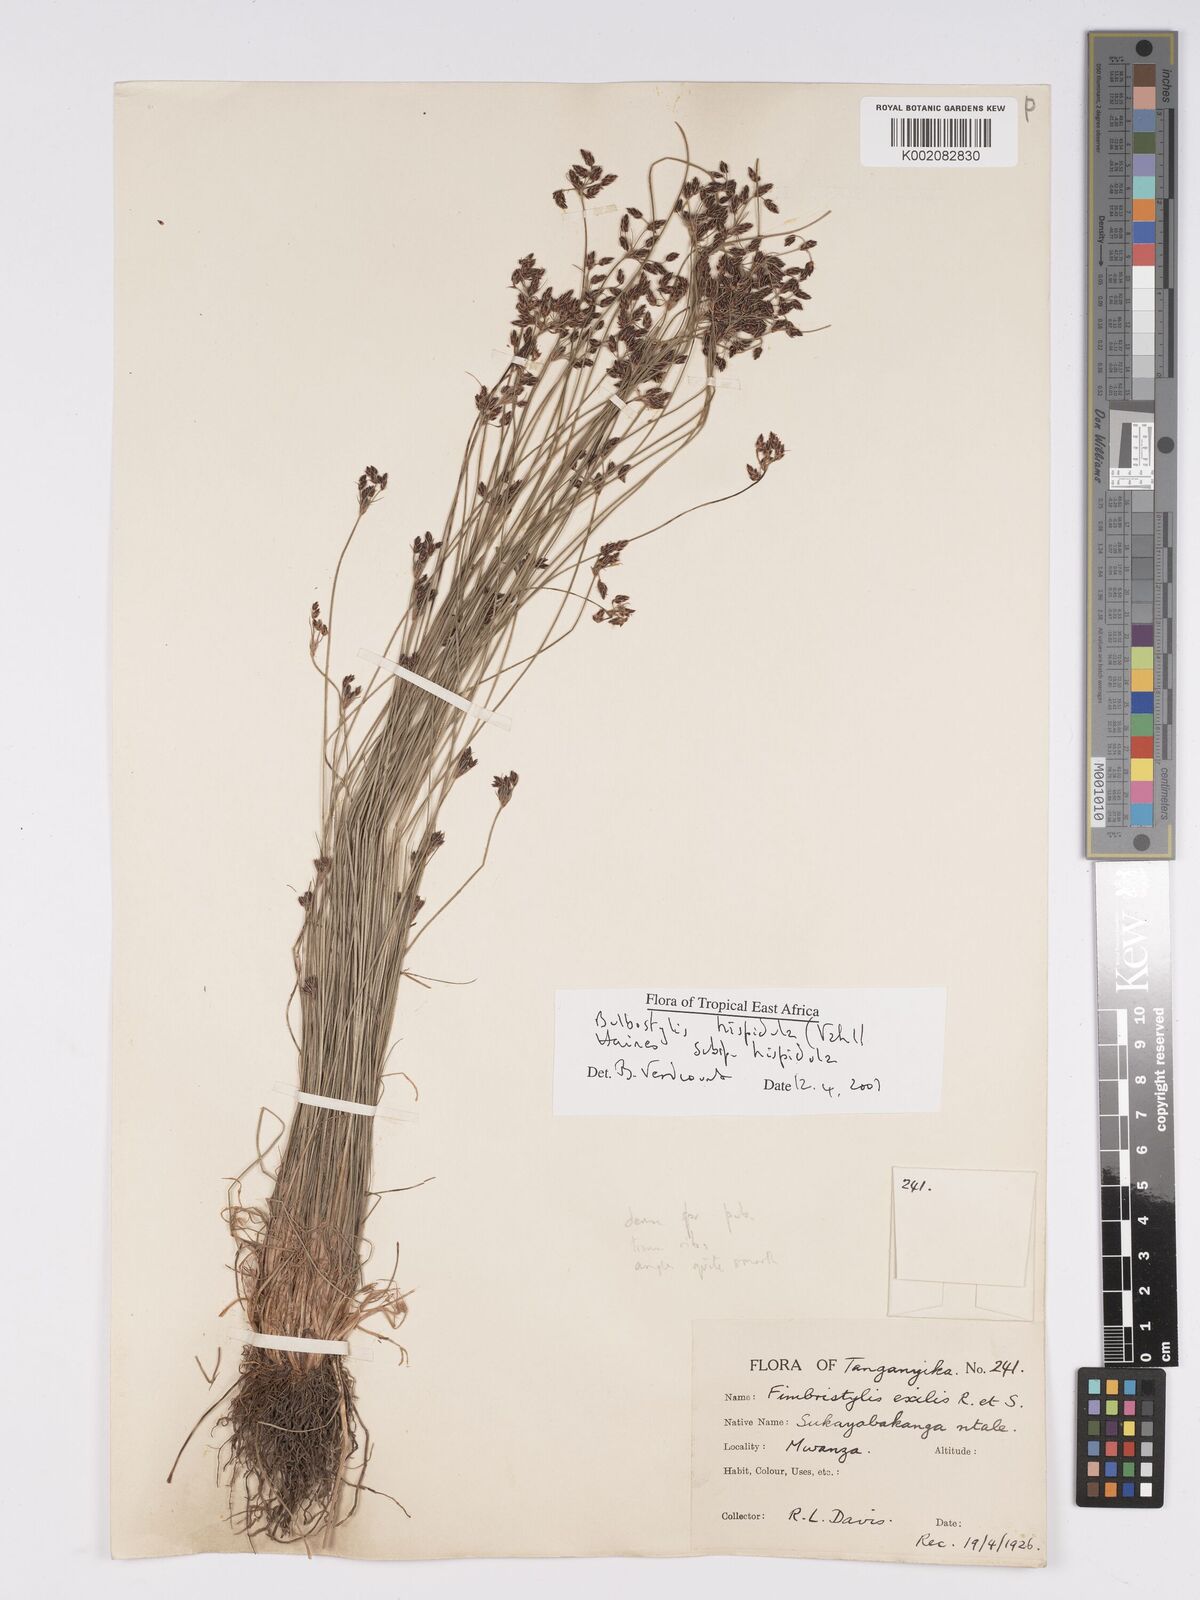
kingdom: Plantae
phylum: Tracheophyta
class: Liliopsida
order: Poales
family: Cyperaceae
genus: Bulbostylis
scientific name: Bulbostylis hispidula
